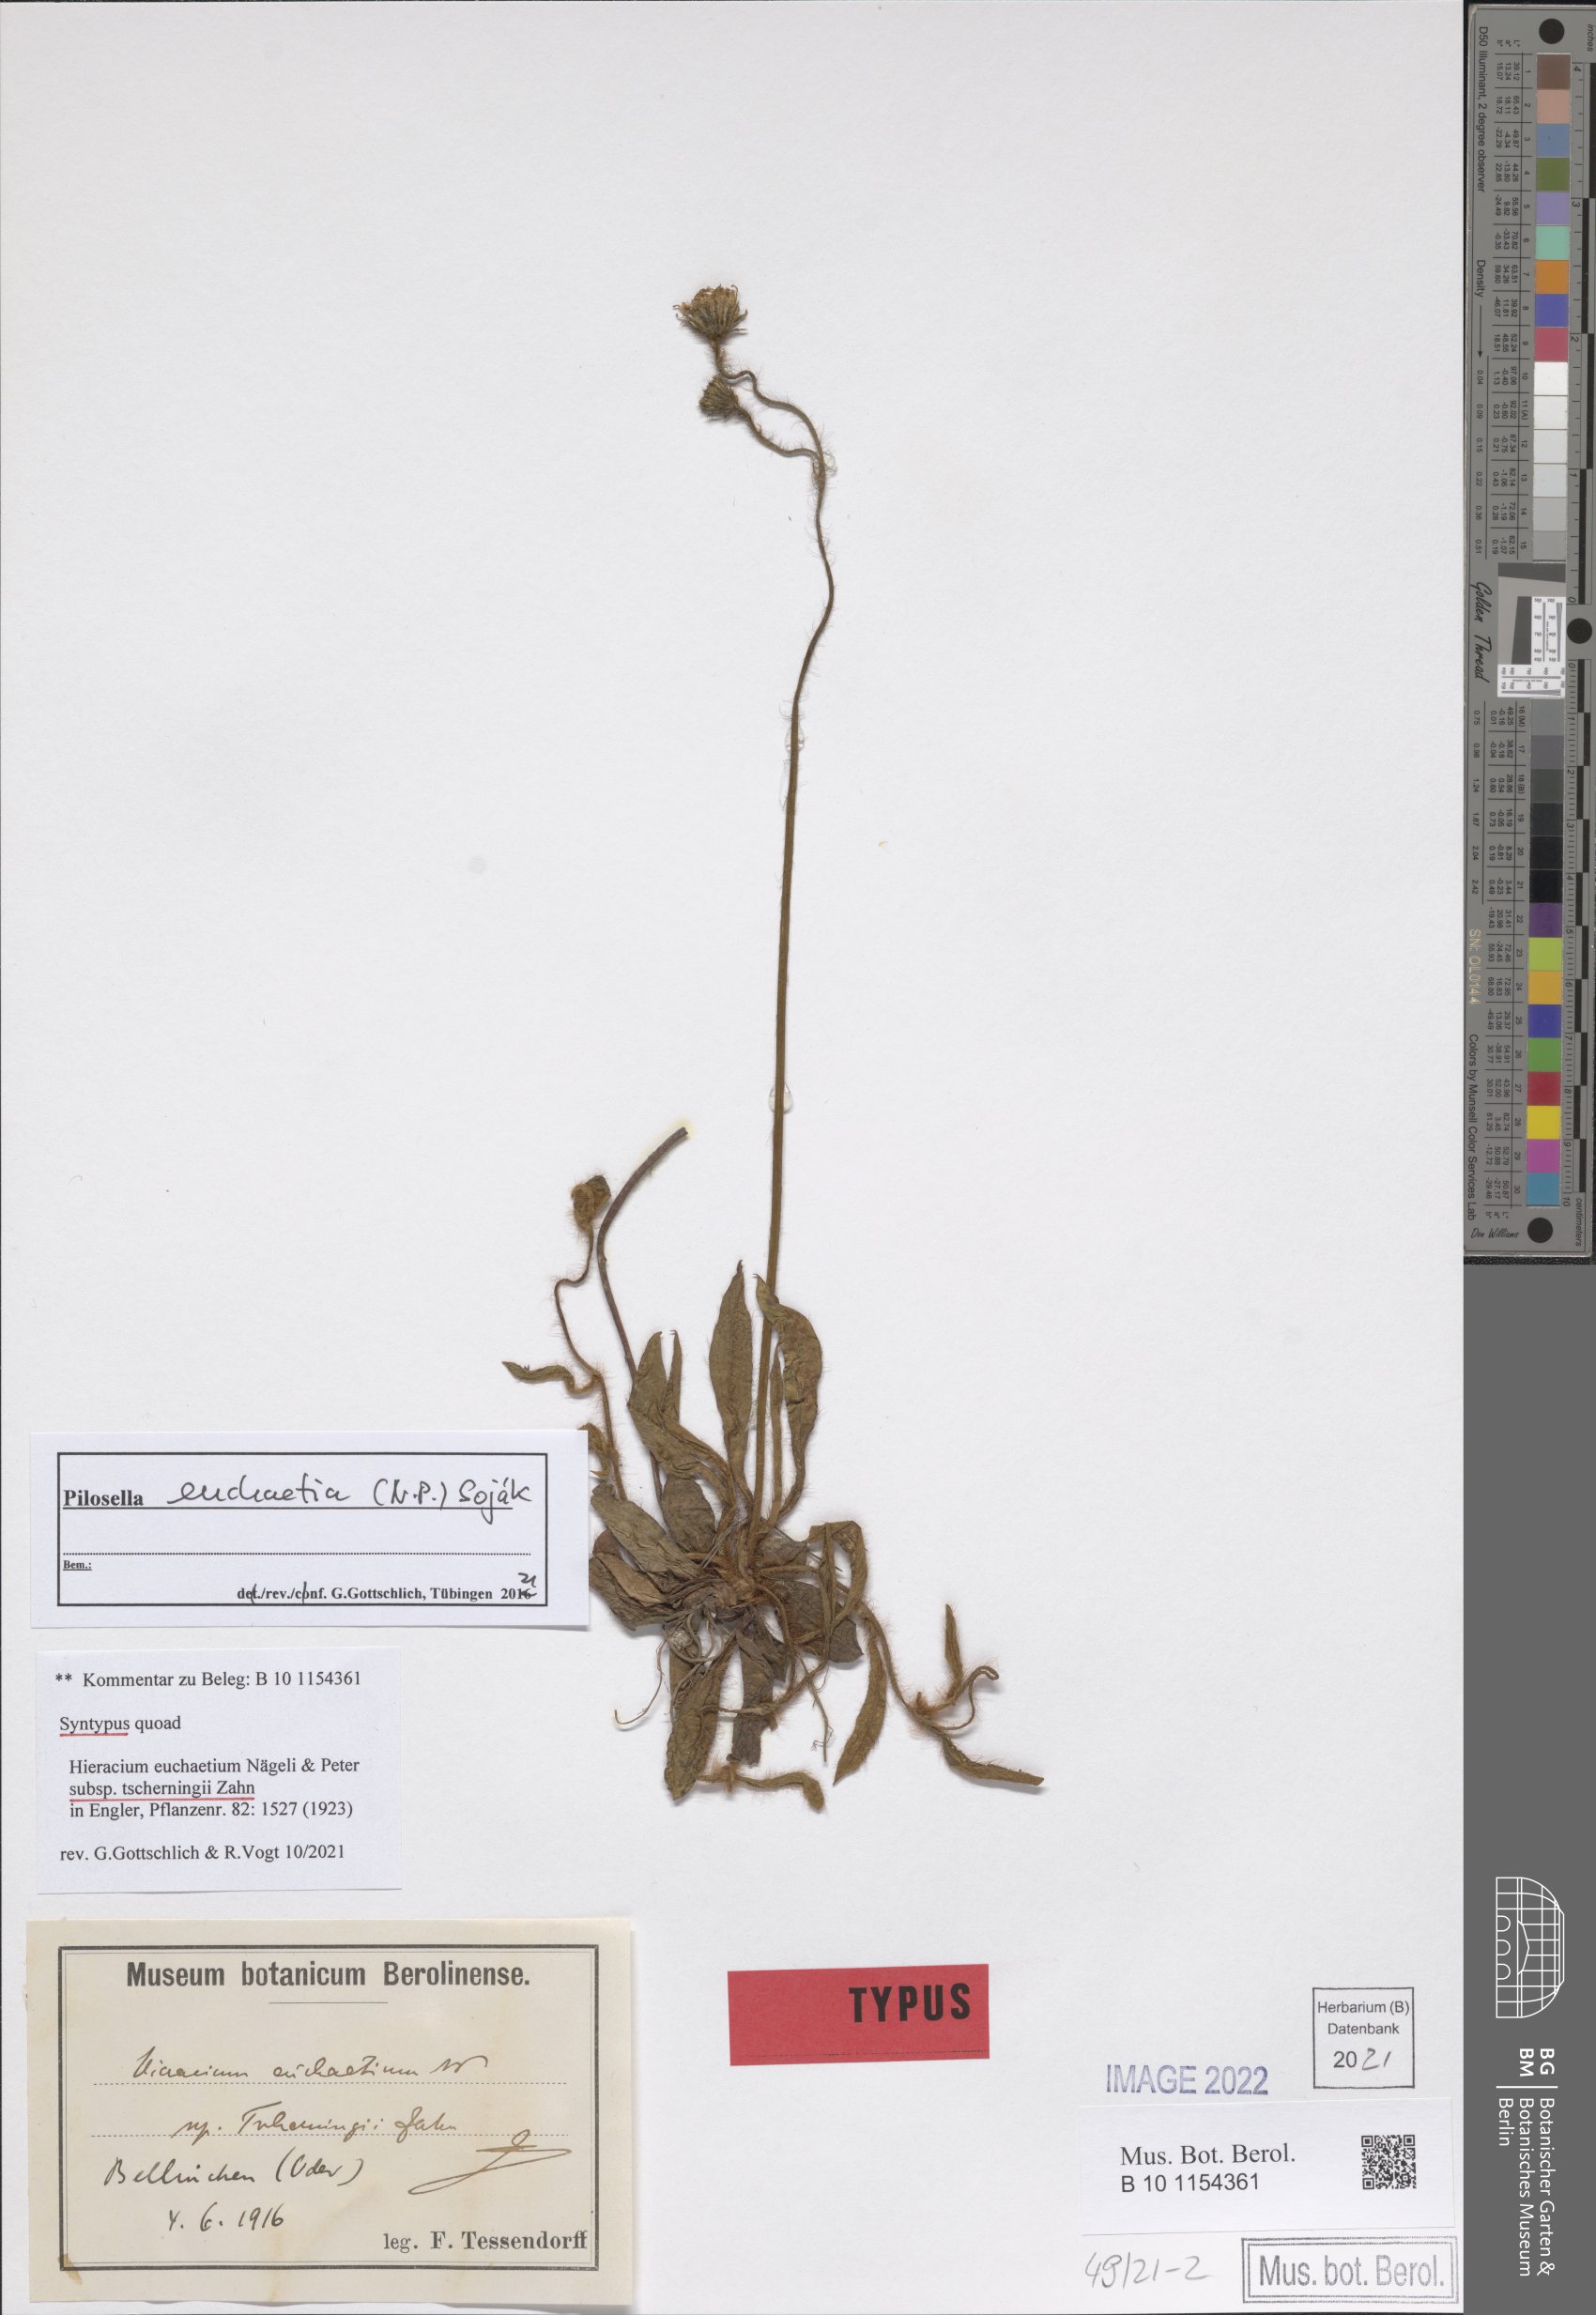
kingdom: Plantae
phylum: Tracheophyta
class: Magnoliopsida
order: Asterales
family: Asteraceae
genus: Pilosella
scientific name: Pilosella euchaetia
